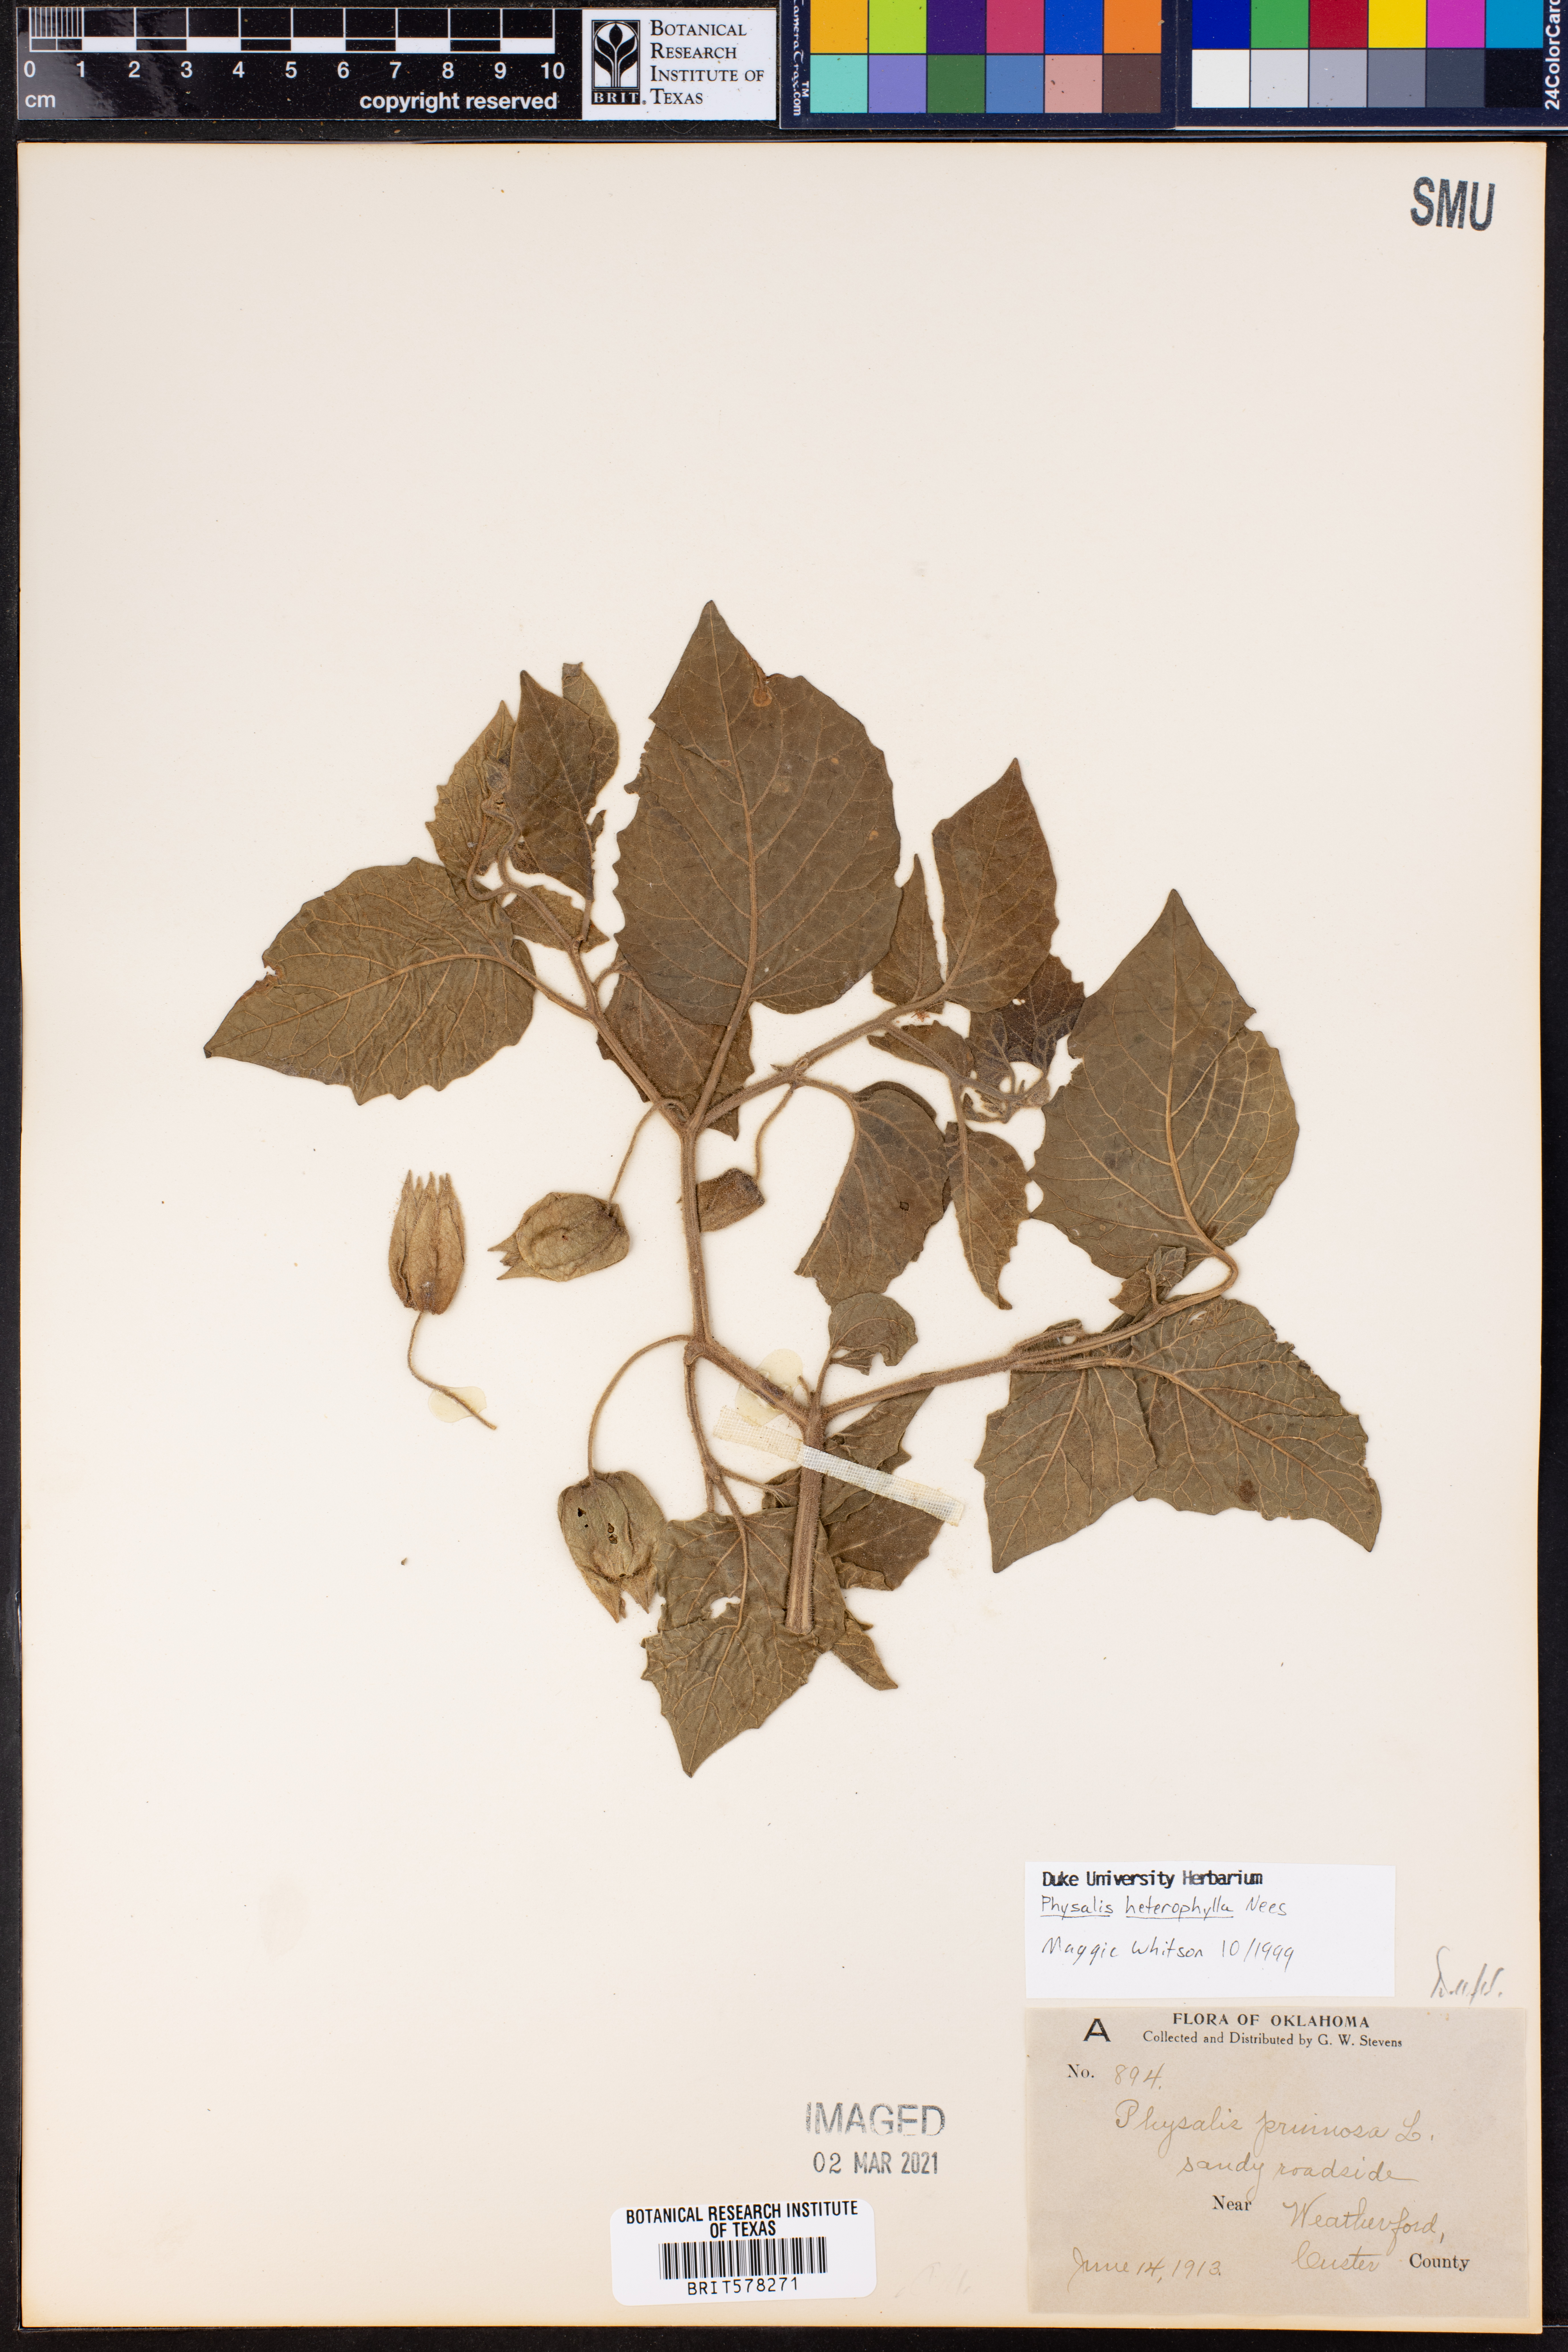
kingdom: Plantae
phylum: Tracheophyta
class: Magnoliopsida
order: Solanales
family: Solanaceae
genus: Physalis
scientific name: Physalis heterophylla
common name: Clammy ground-cherry
